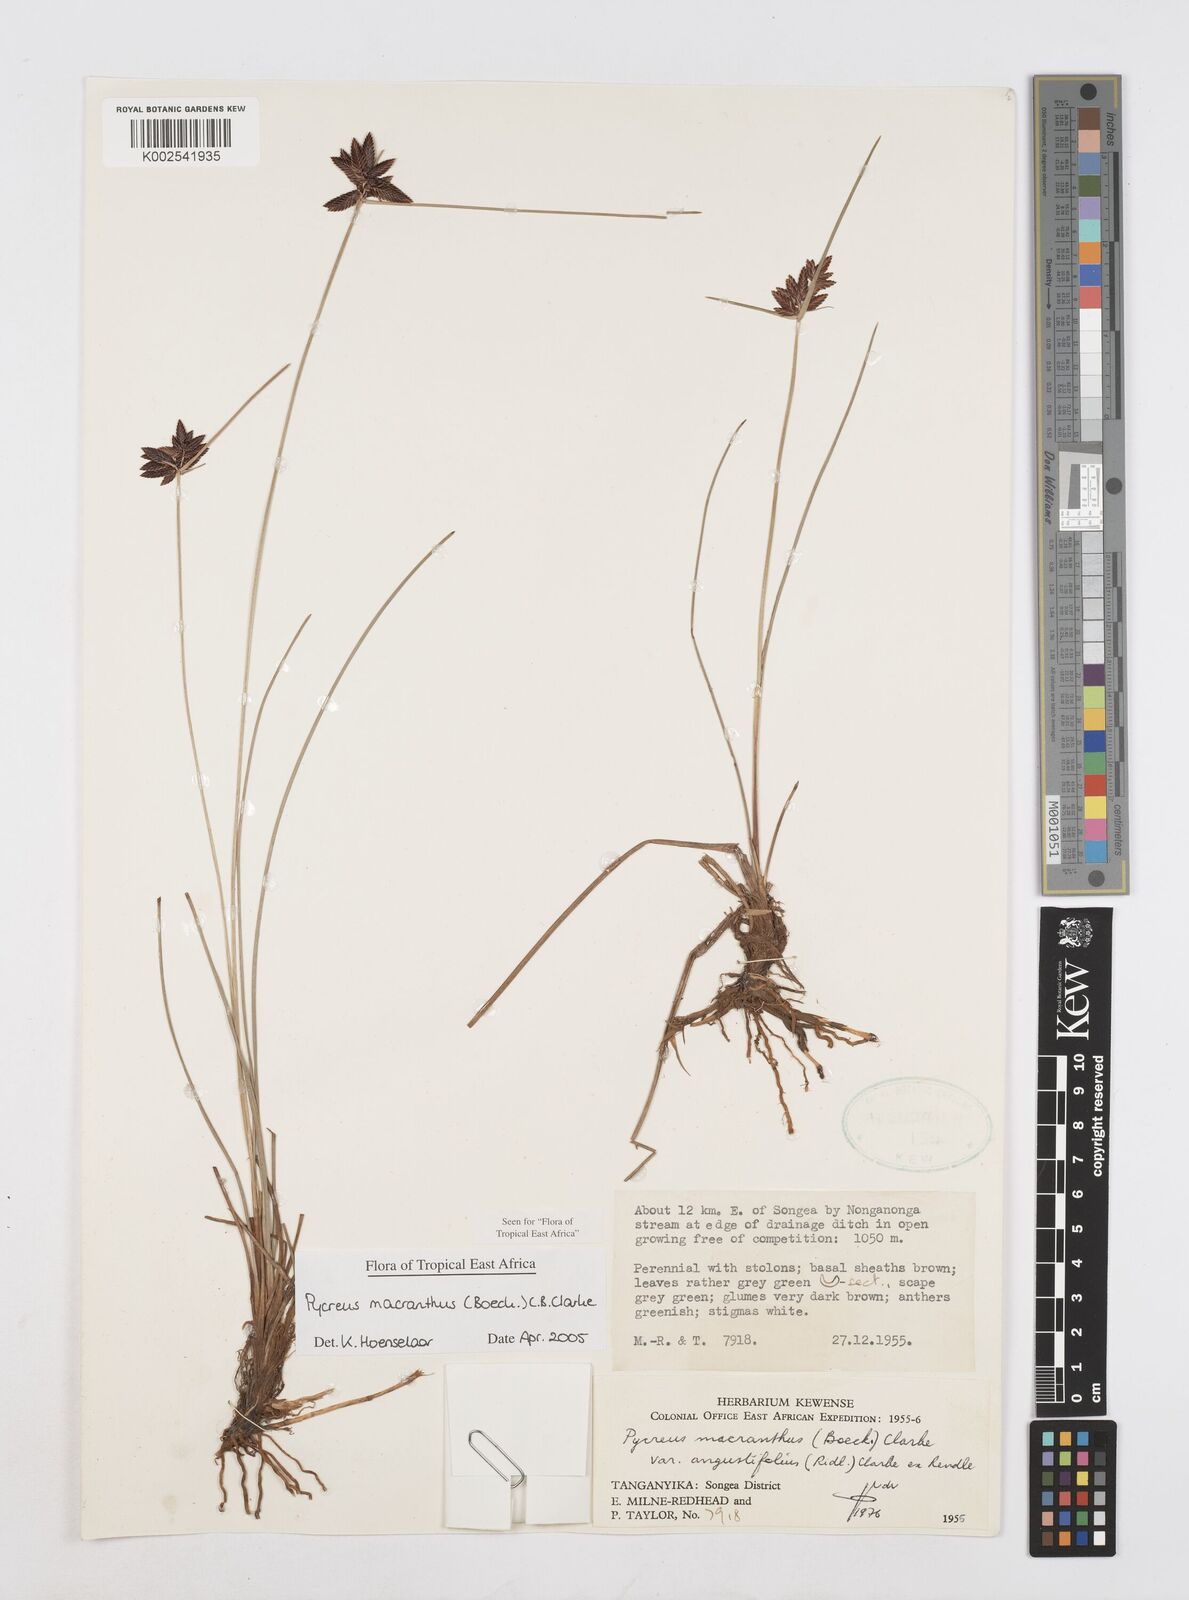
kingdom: Plantae
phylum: Tracheophyta
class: Liliopsida
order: Poales
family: Cyperaceae
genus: Cyperus
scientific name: Cyperus nigricans
